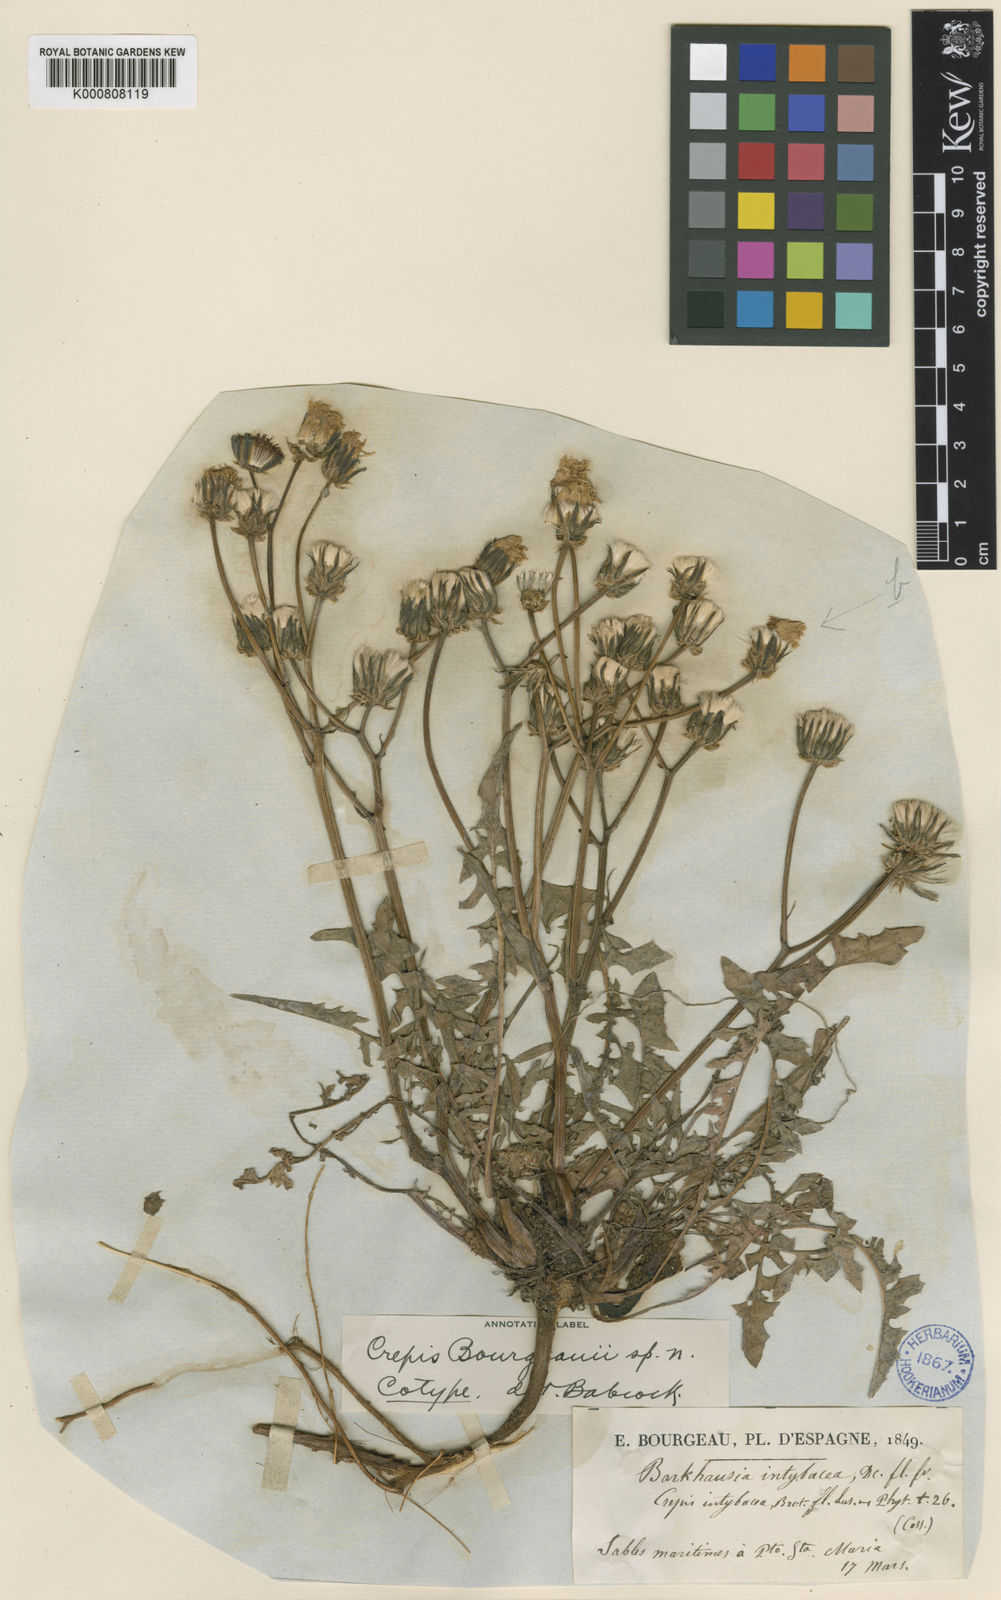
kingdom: Plantae
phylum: Tracheophyta
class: Magnoliopsida
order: Asterales
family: Asteraceae
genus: Crepis
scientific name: Crepis erythia
